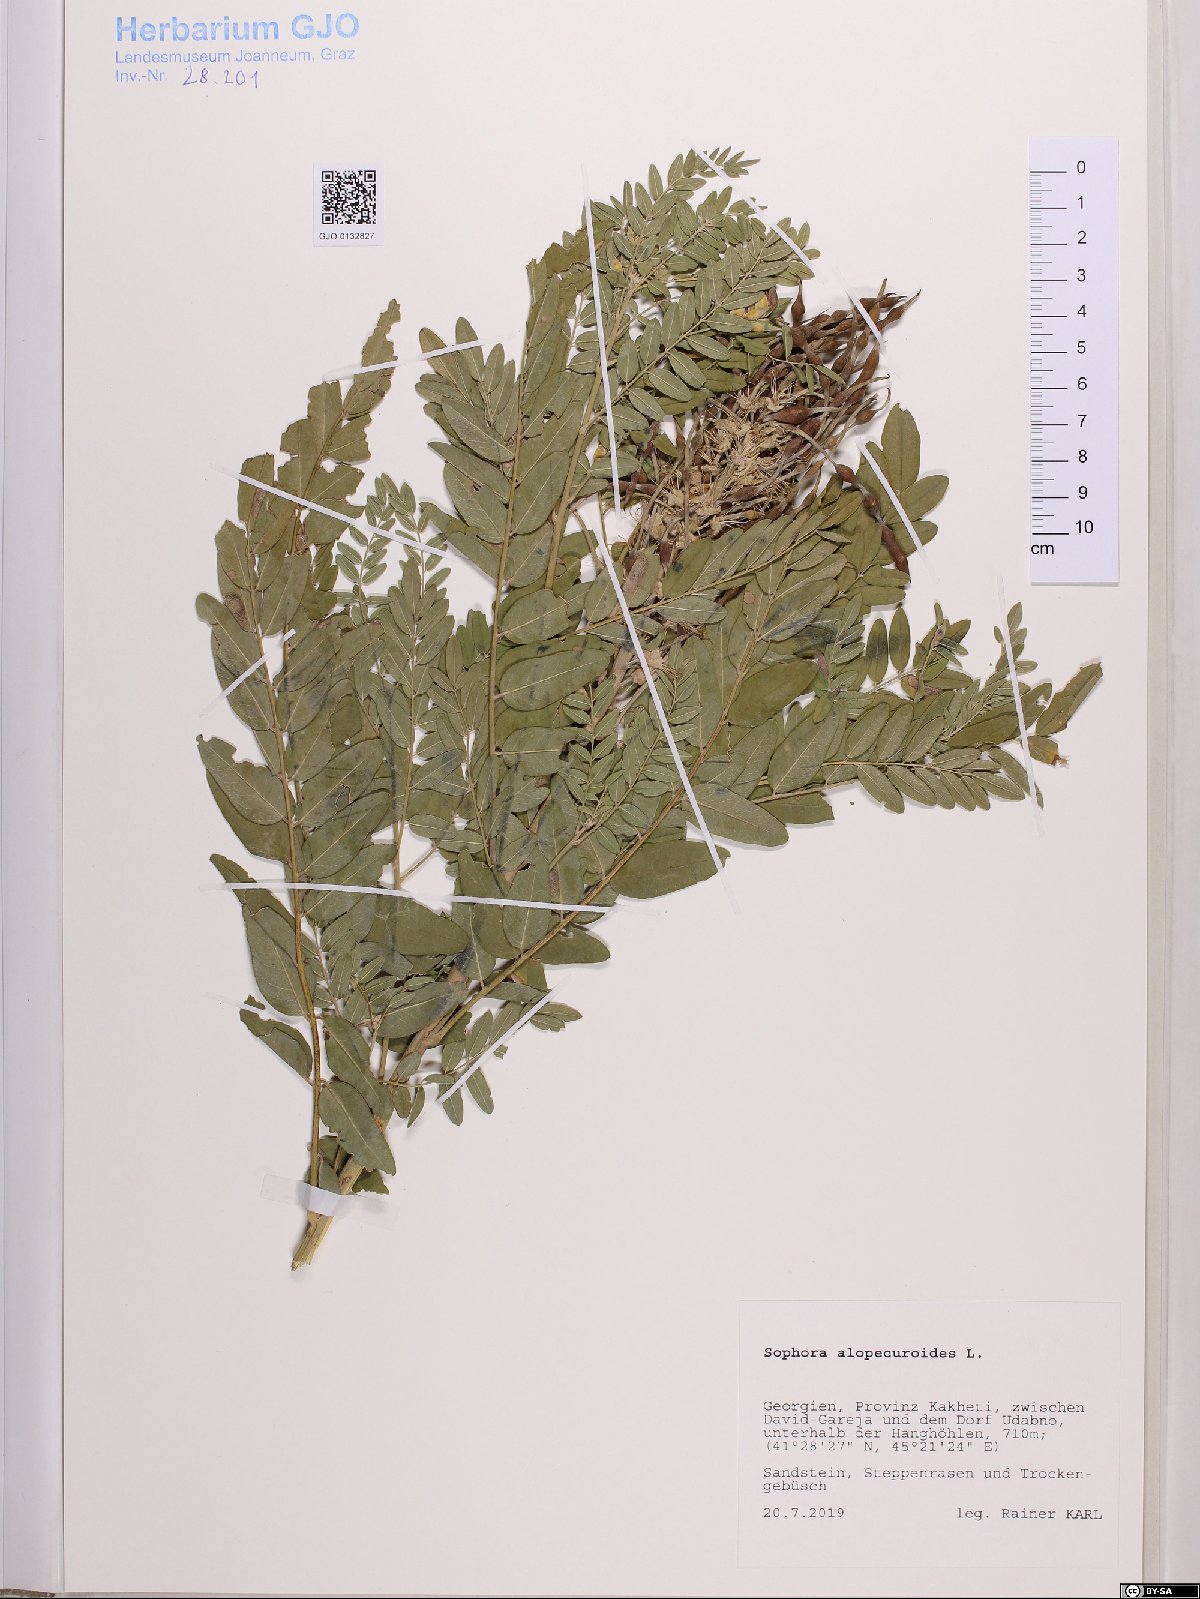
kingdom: Plantae
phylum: Tracheophyta
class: Magnoliopsida
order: Fabales
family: Fabaceae
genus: Sophora
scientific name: Sophora alopecuroides
